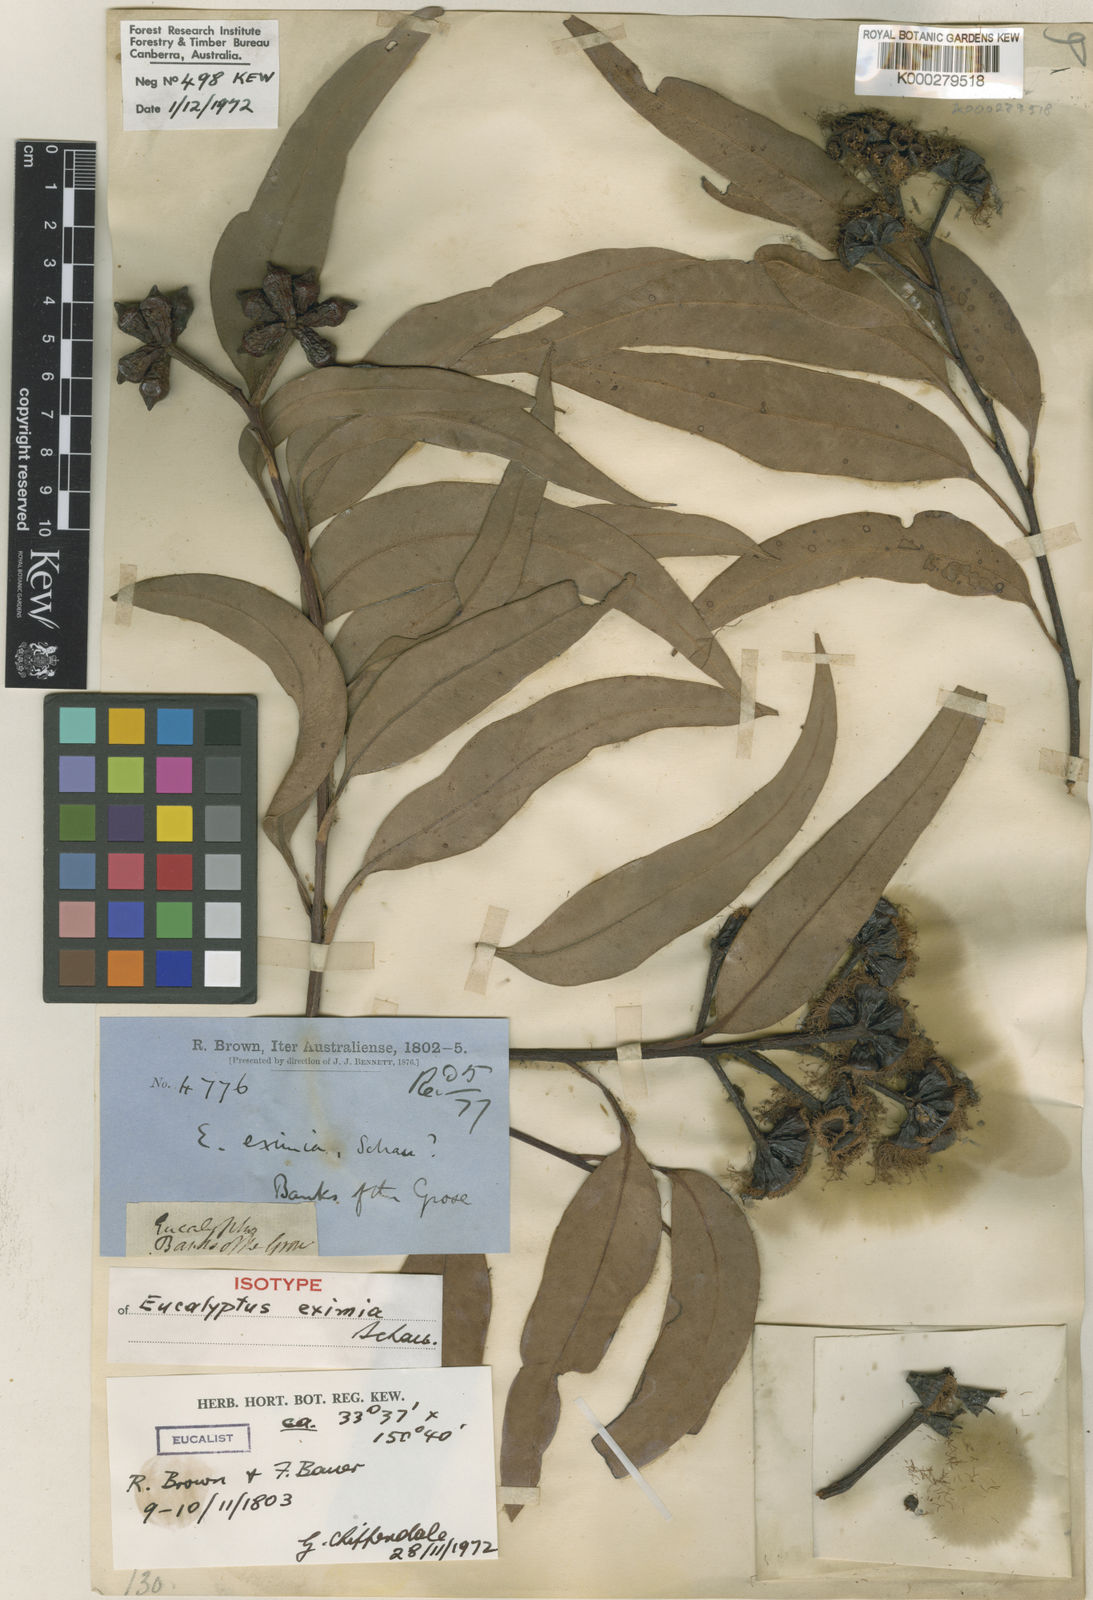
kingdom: Plantae
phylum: Tracheophyta
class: Magnoliopsida
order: Myrtales
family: Myrtaceae
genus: Corymbia
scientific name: Corymbia eximia
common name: Yellow bloodwood
